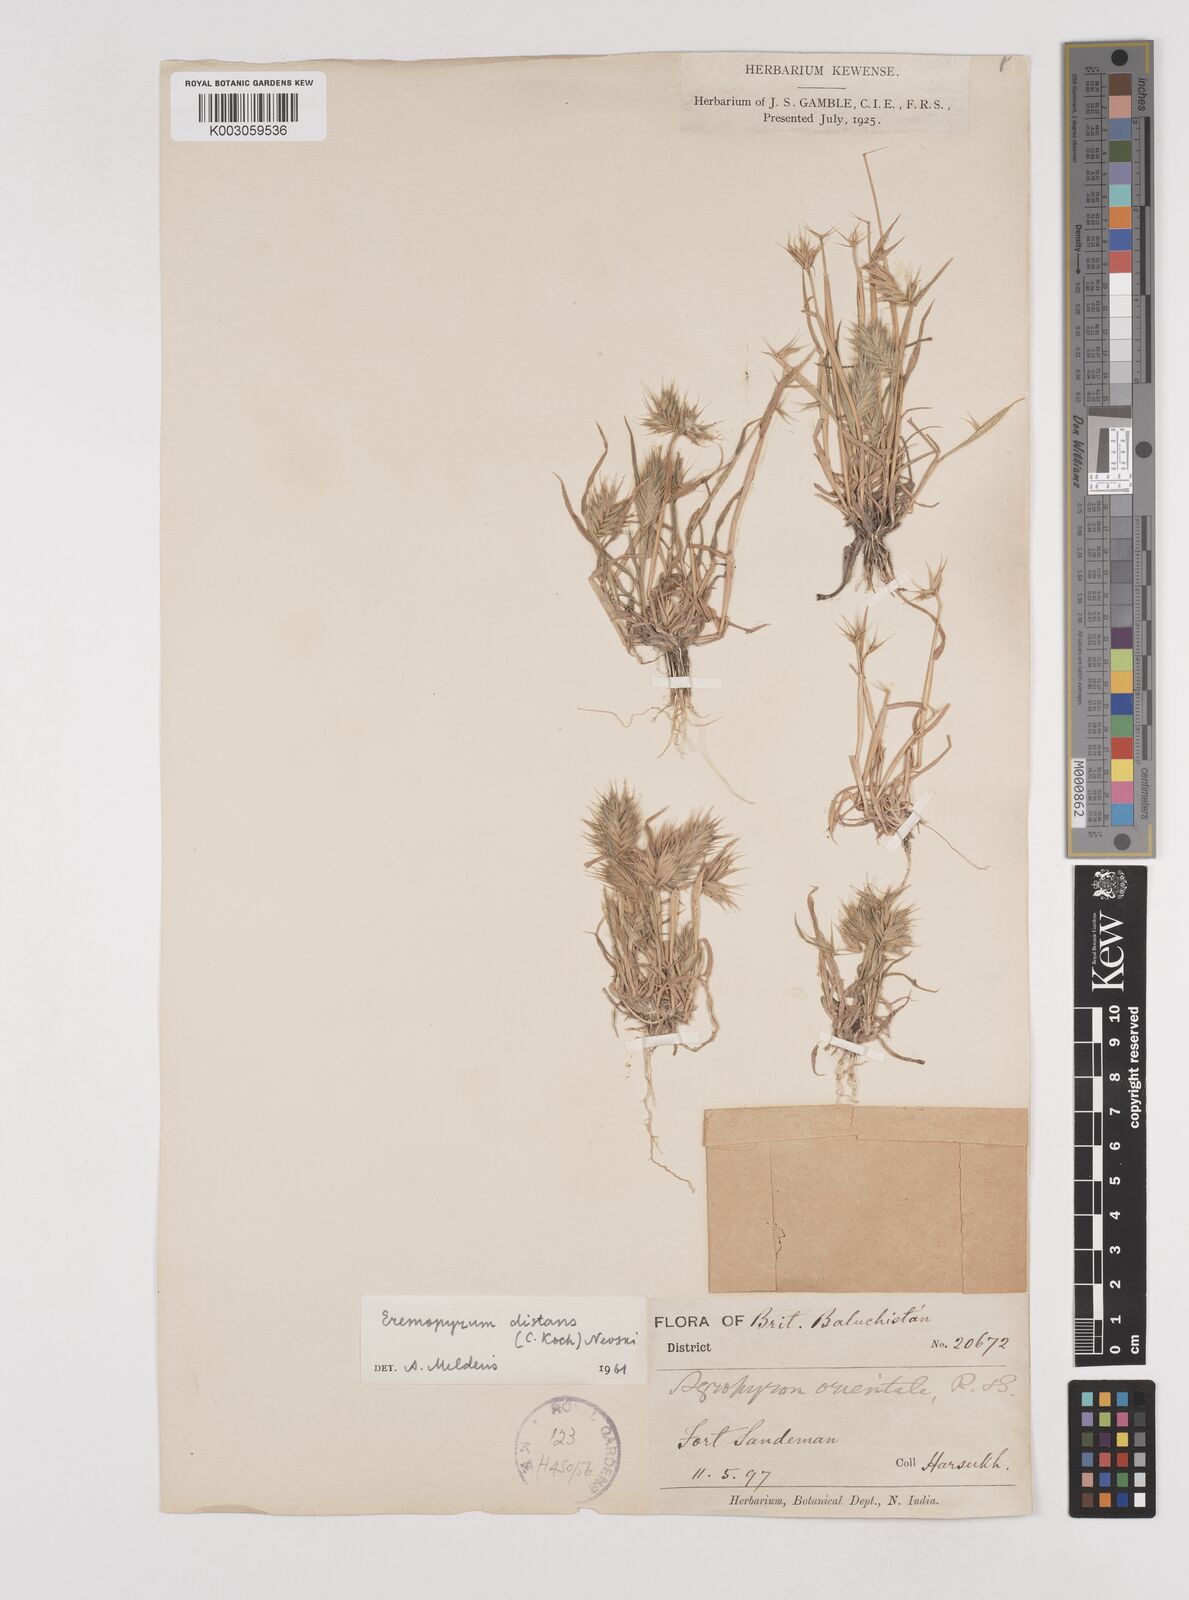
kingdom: Plantae
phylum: Tracheophyta
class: Liliopsida
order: Poales
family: Poaceae
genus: Eremopyrum
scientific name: Eremopyrum distans
